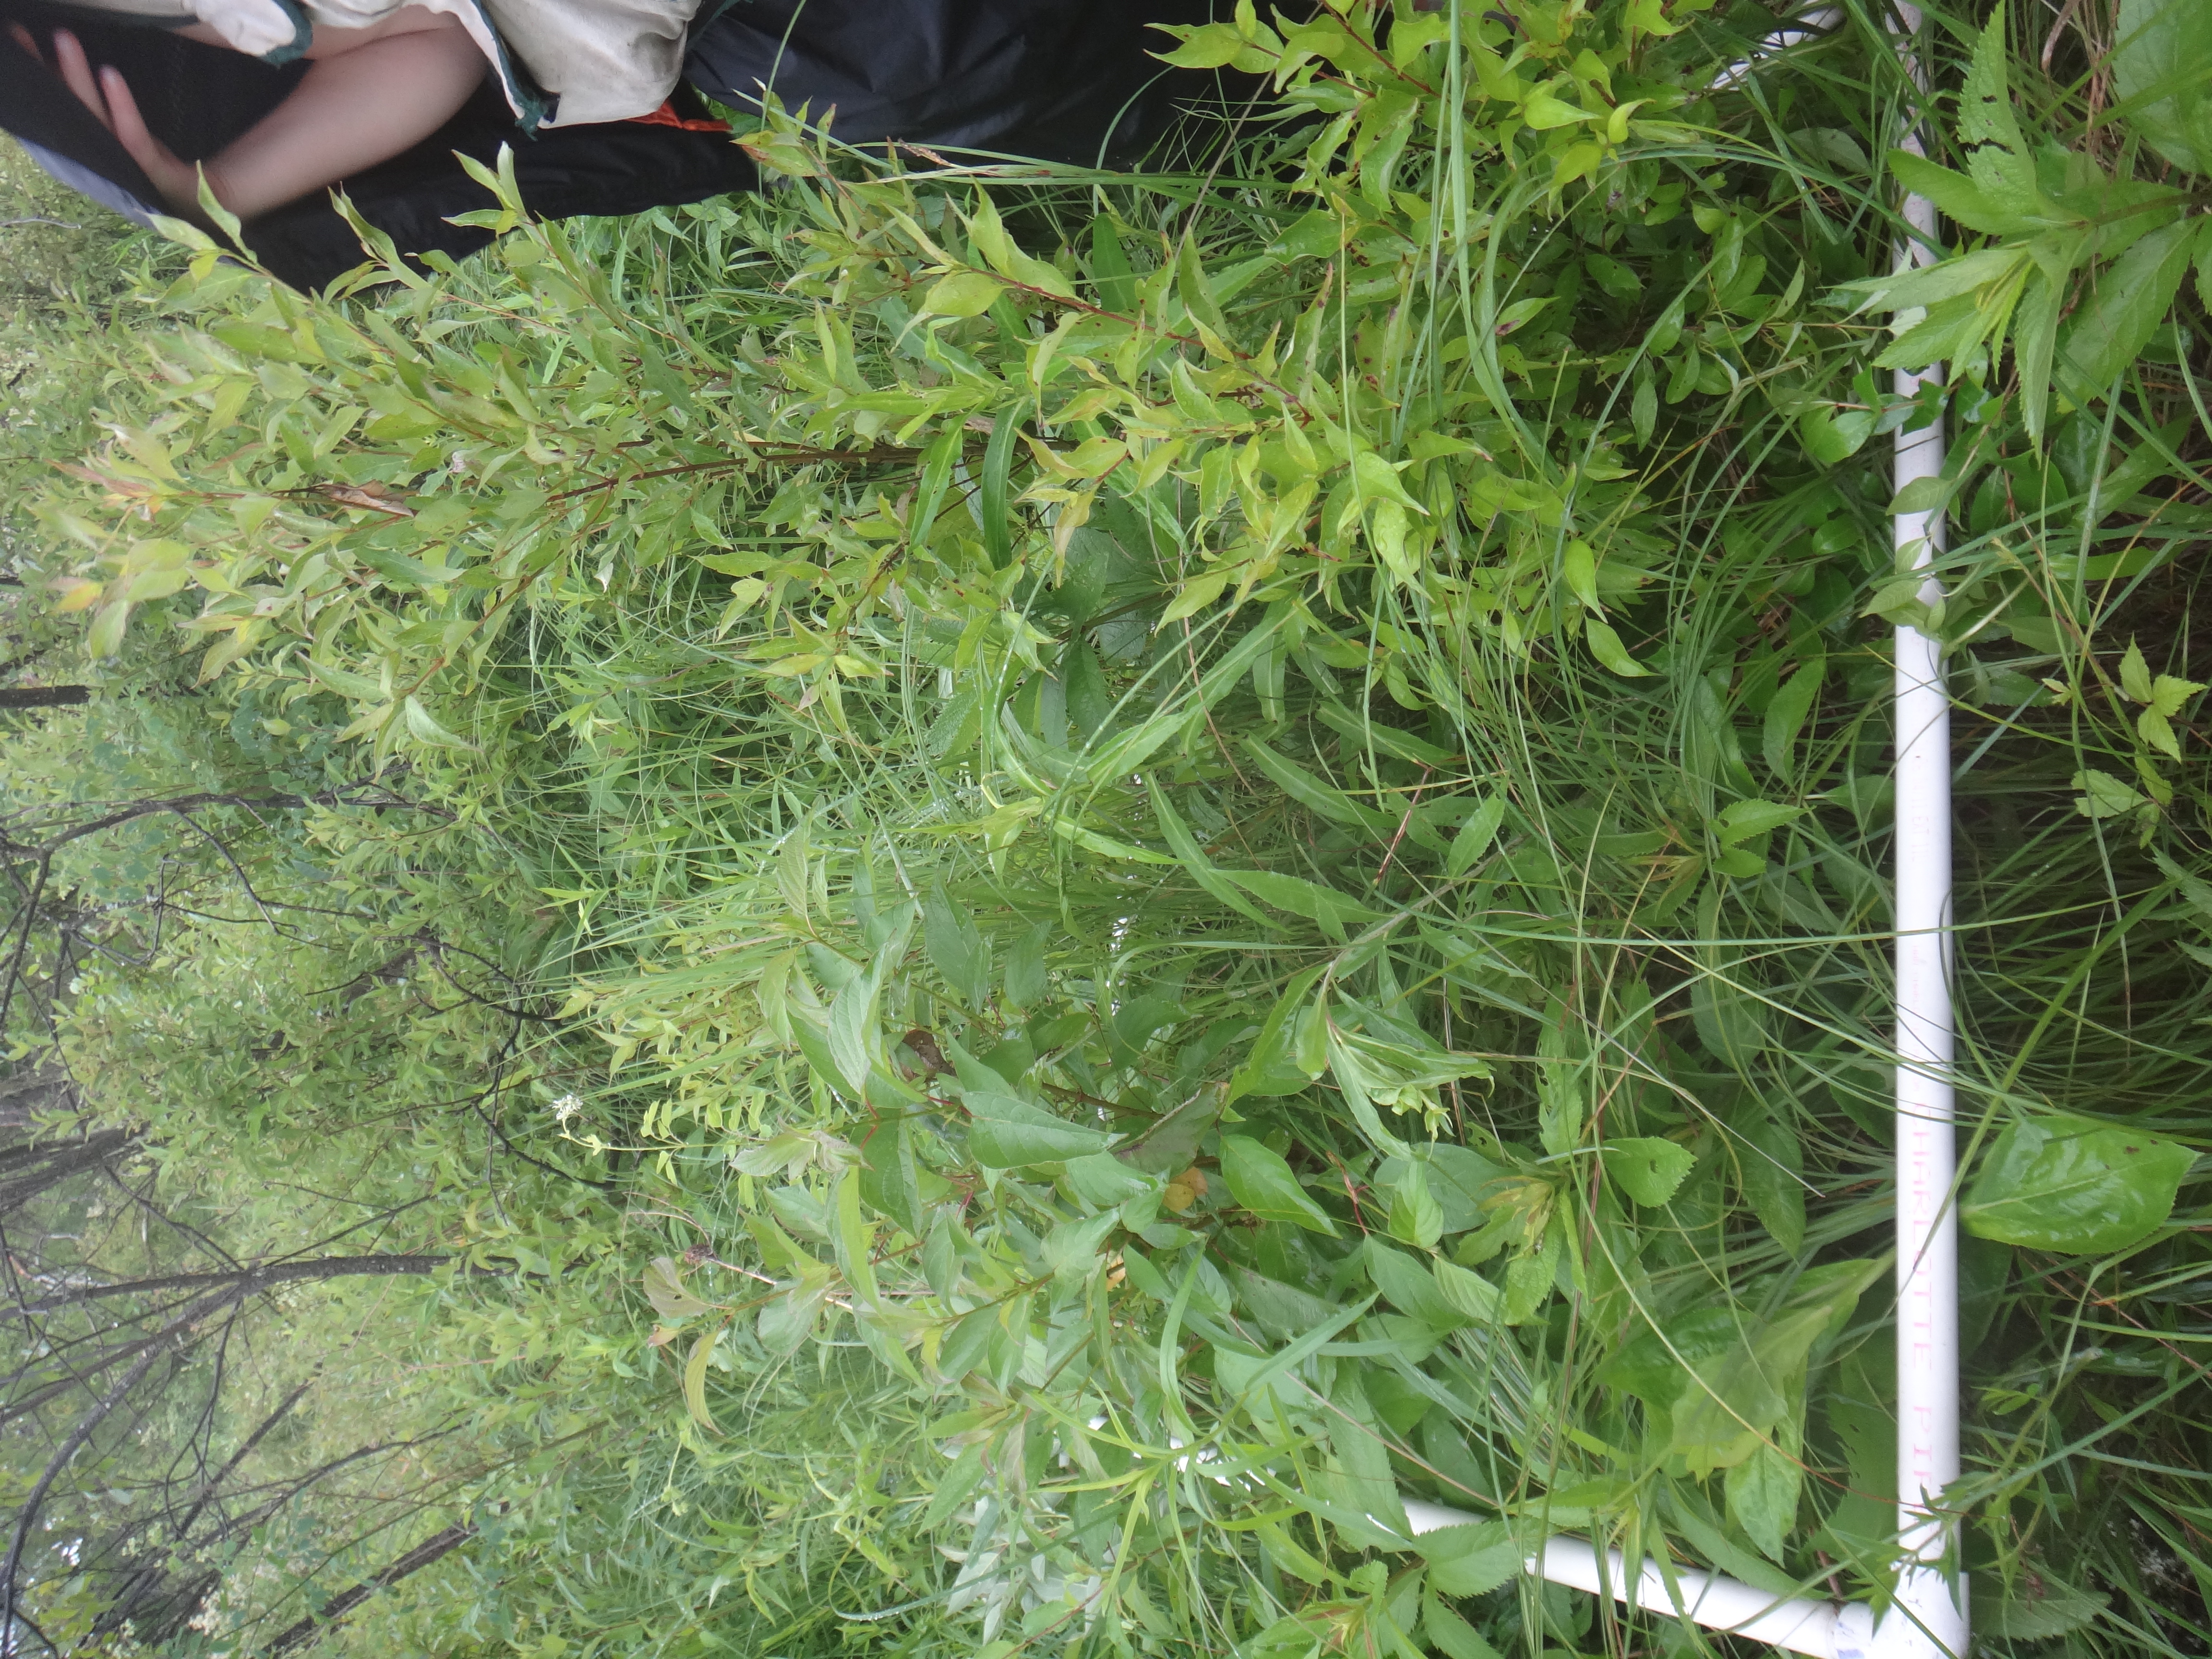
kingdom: Plantae
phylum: Tracheophyta
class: Magnoliopsida
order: Asterales
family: Asteraceae
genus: Solidago
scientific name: Solidago rugosa
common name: Rough-stemmed goldenrod
